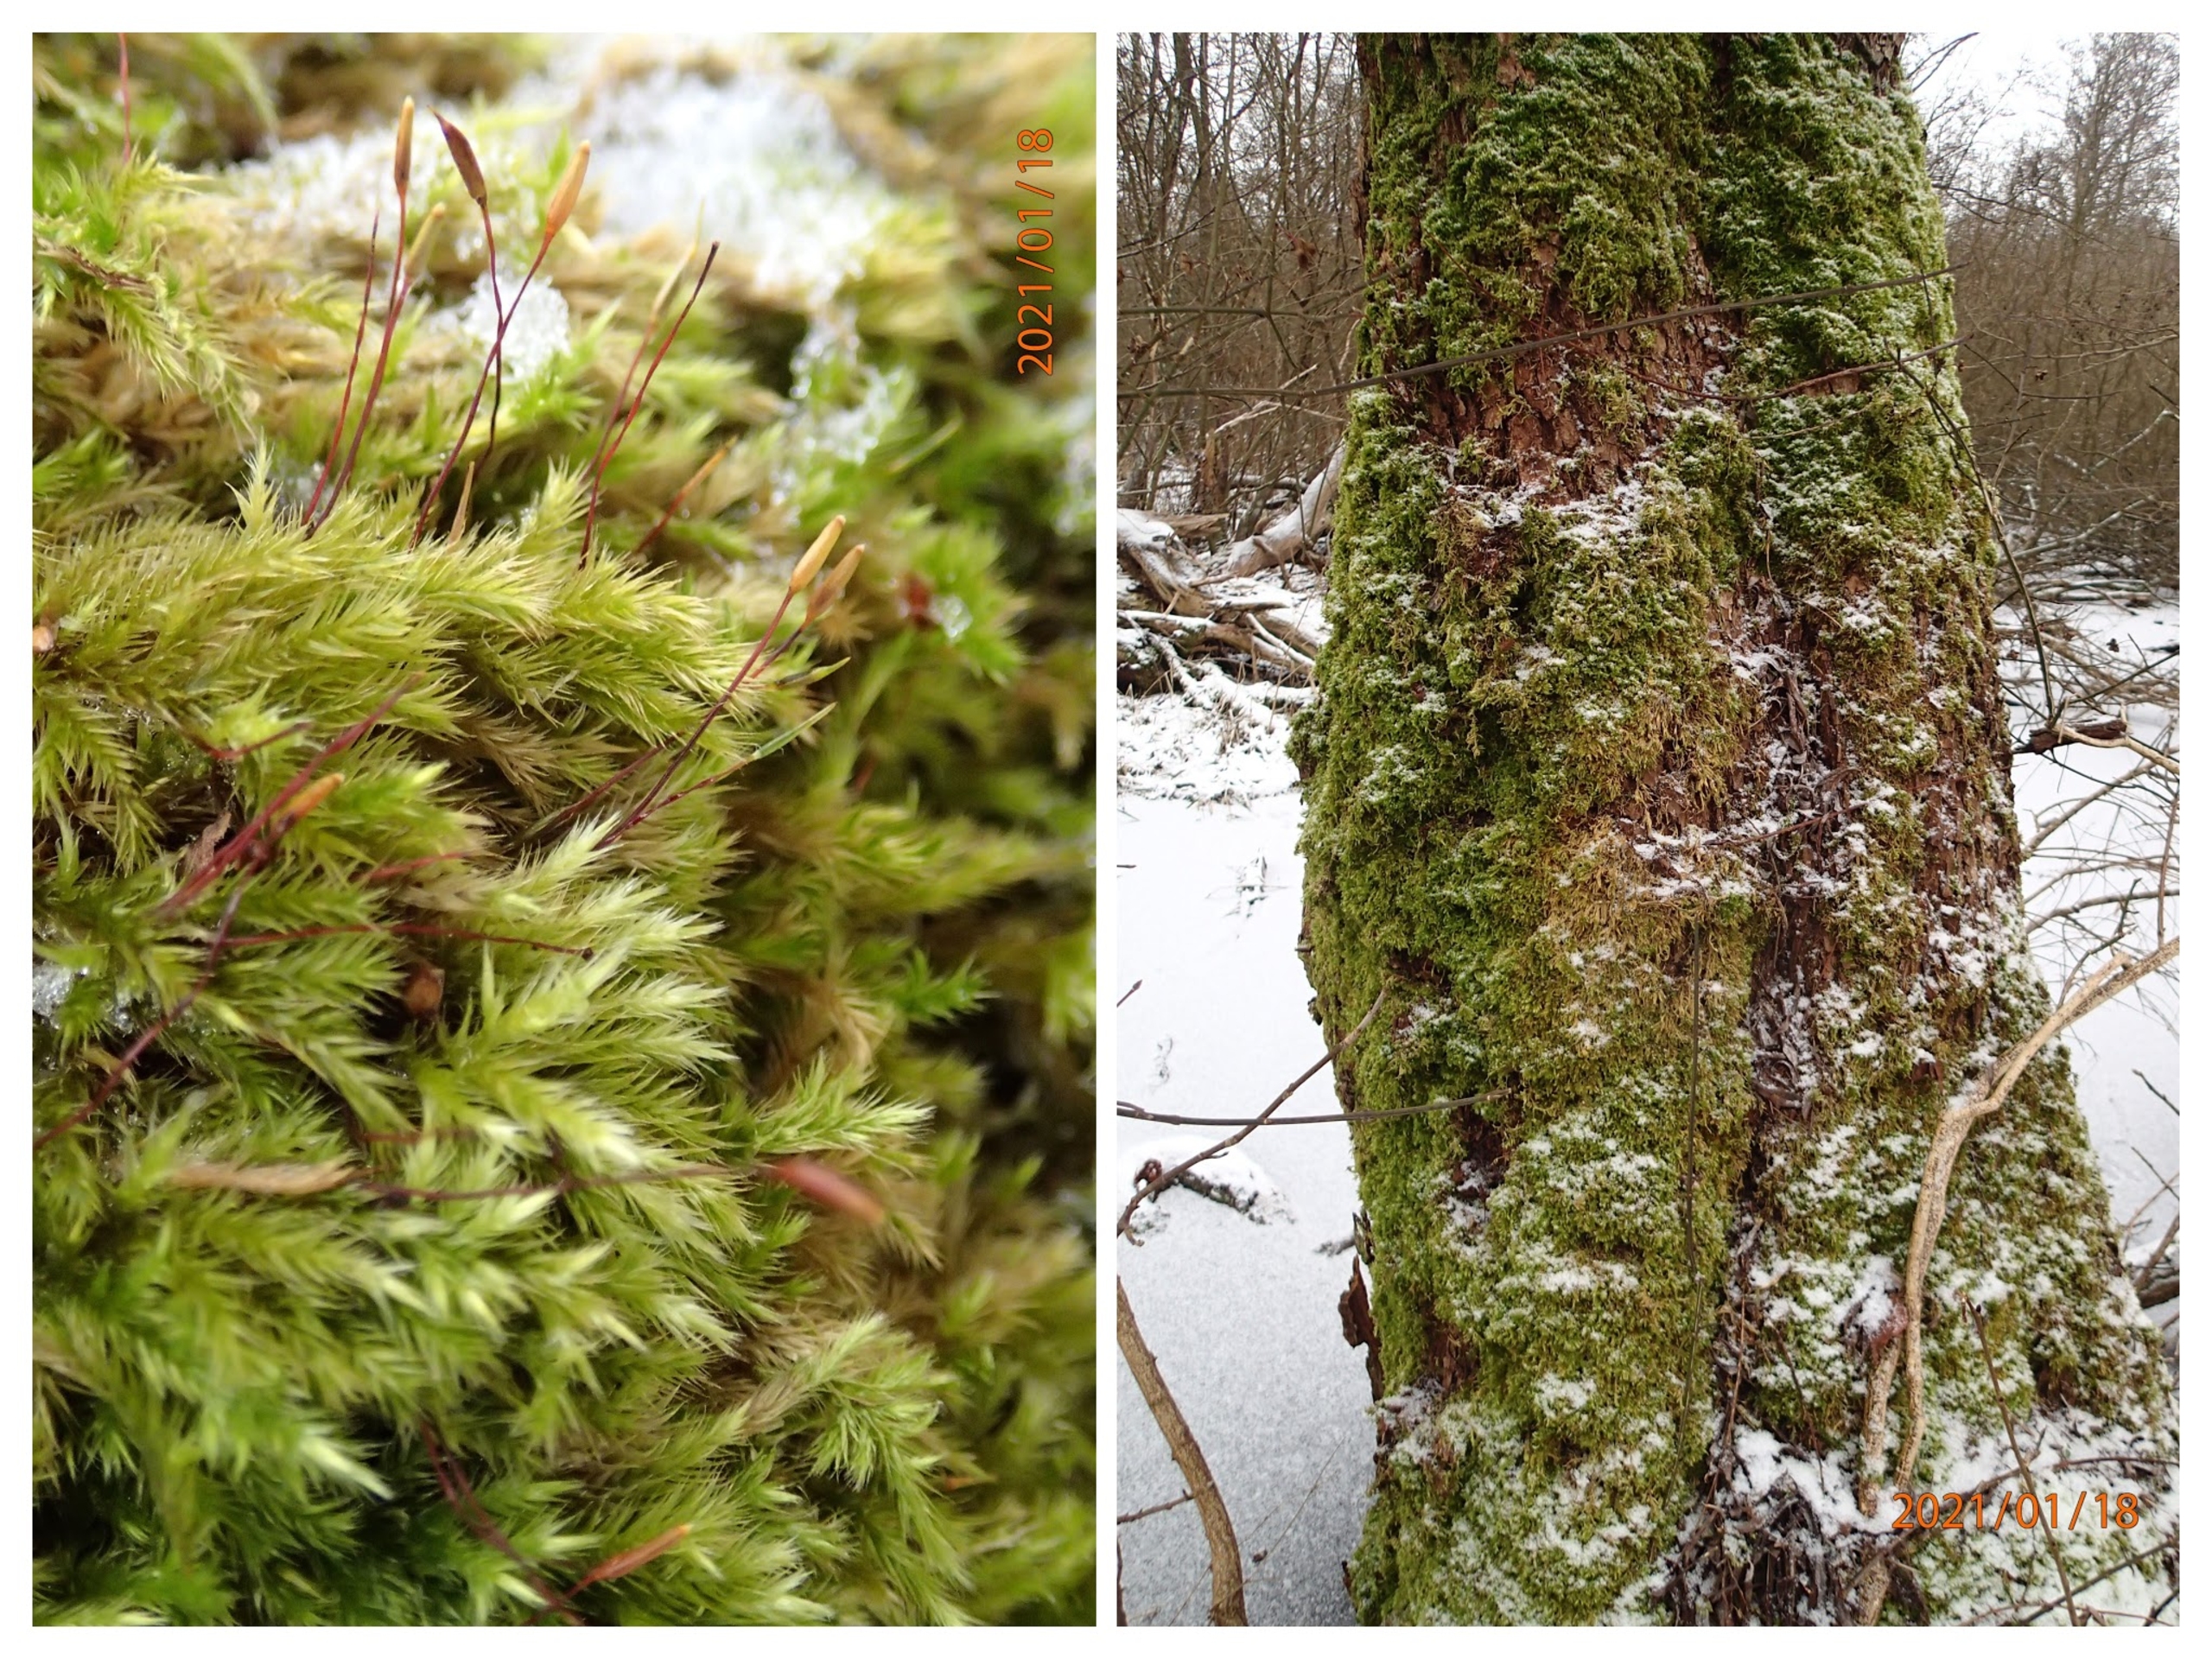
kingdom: Plantae
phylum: Bryophyta
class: Bryopsida
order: Hypnales
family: Brachytheciaceae
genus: Homalothecium
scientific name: Homalothecium sericeum
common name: Krybende silkemos
